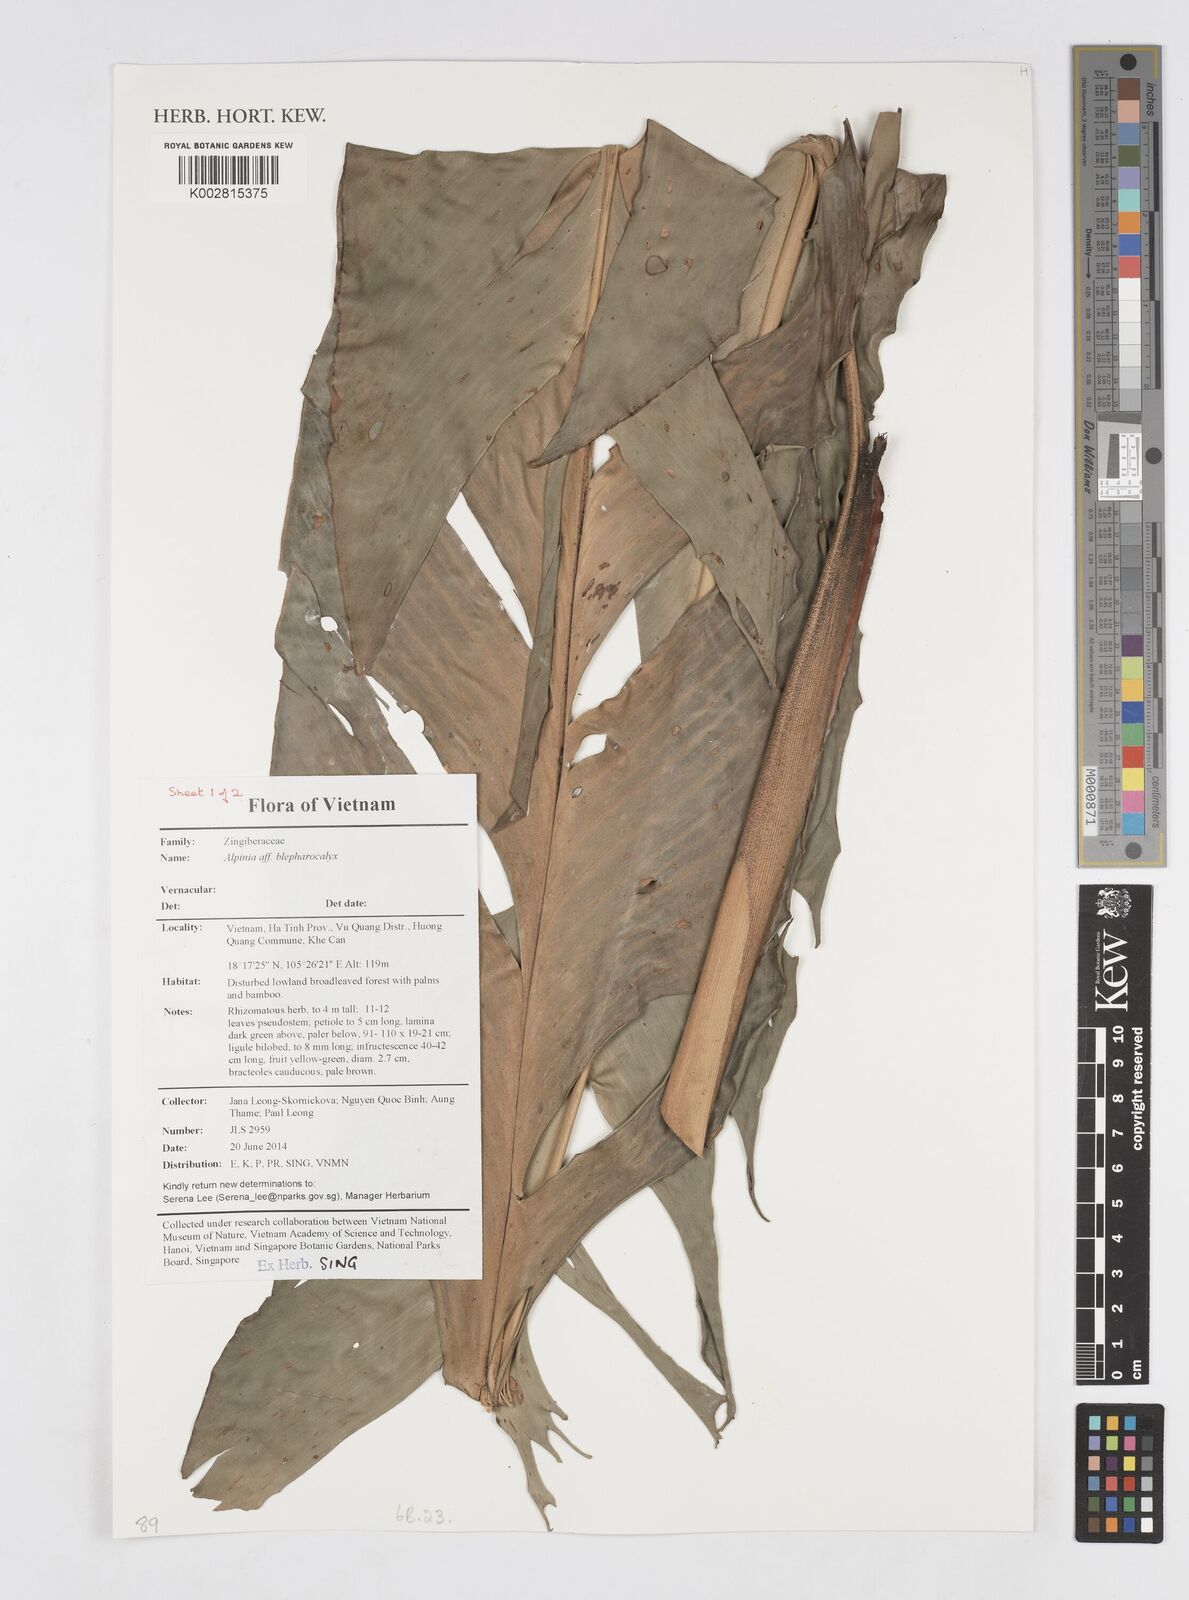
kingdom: Plantae
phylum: Tracheophyta
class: Liliopsida
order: Zingiberales
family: Zingiberaceae
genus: Alpinia
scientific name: Alpinia roxburghii
